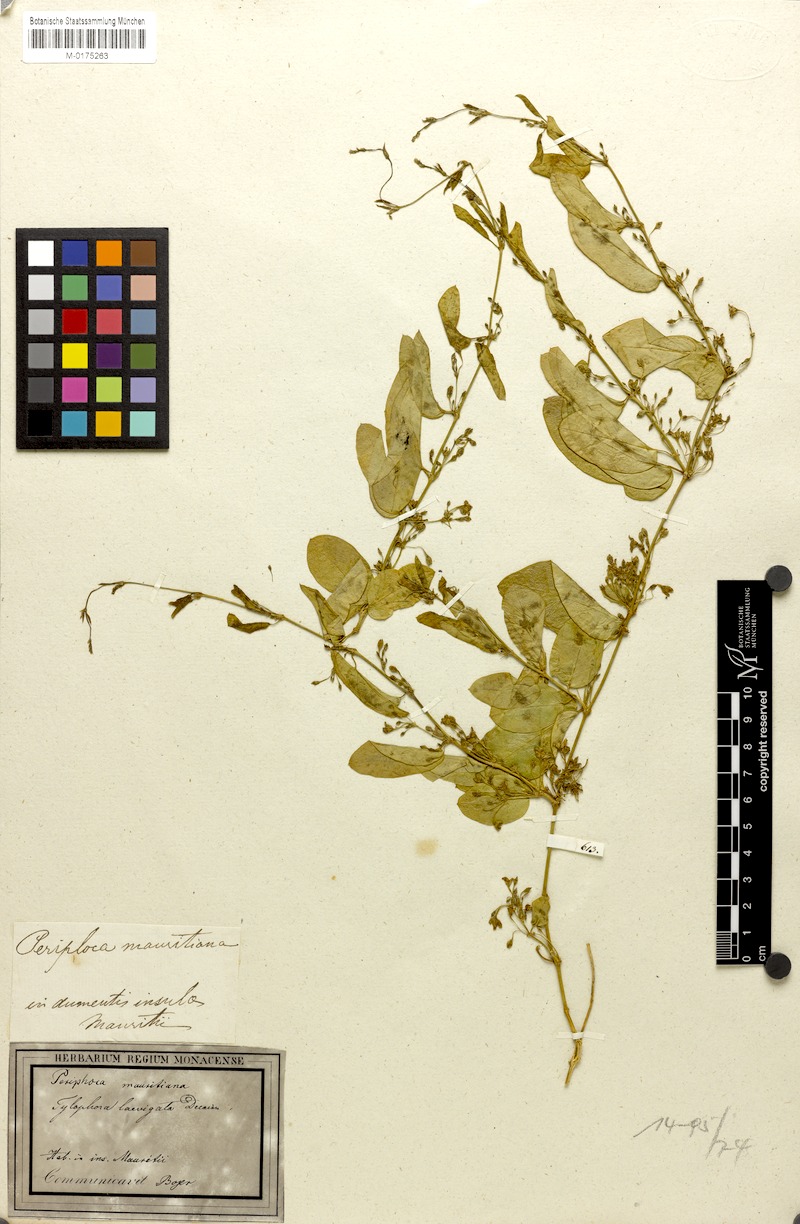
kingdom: Plantae
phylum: Tracheophyta
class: Magnoliopsida
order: Gentianales
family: Apocynaceae
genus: Vincetoxicum
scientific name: Vincetoxicum confusum
